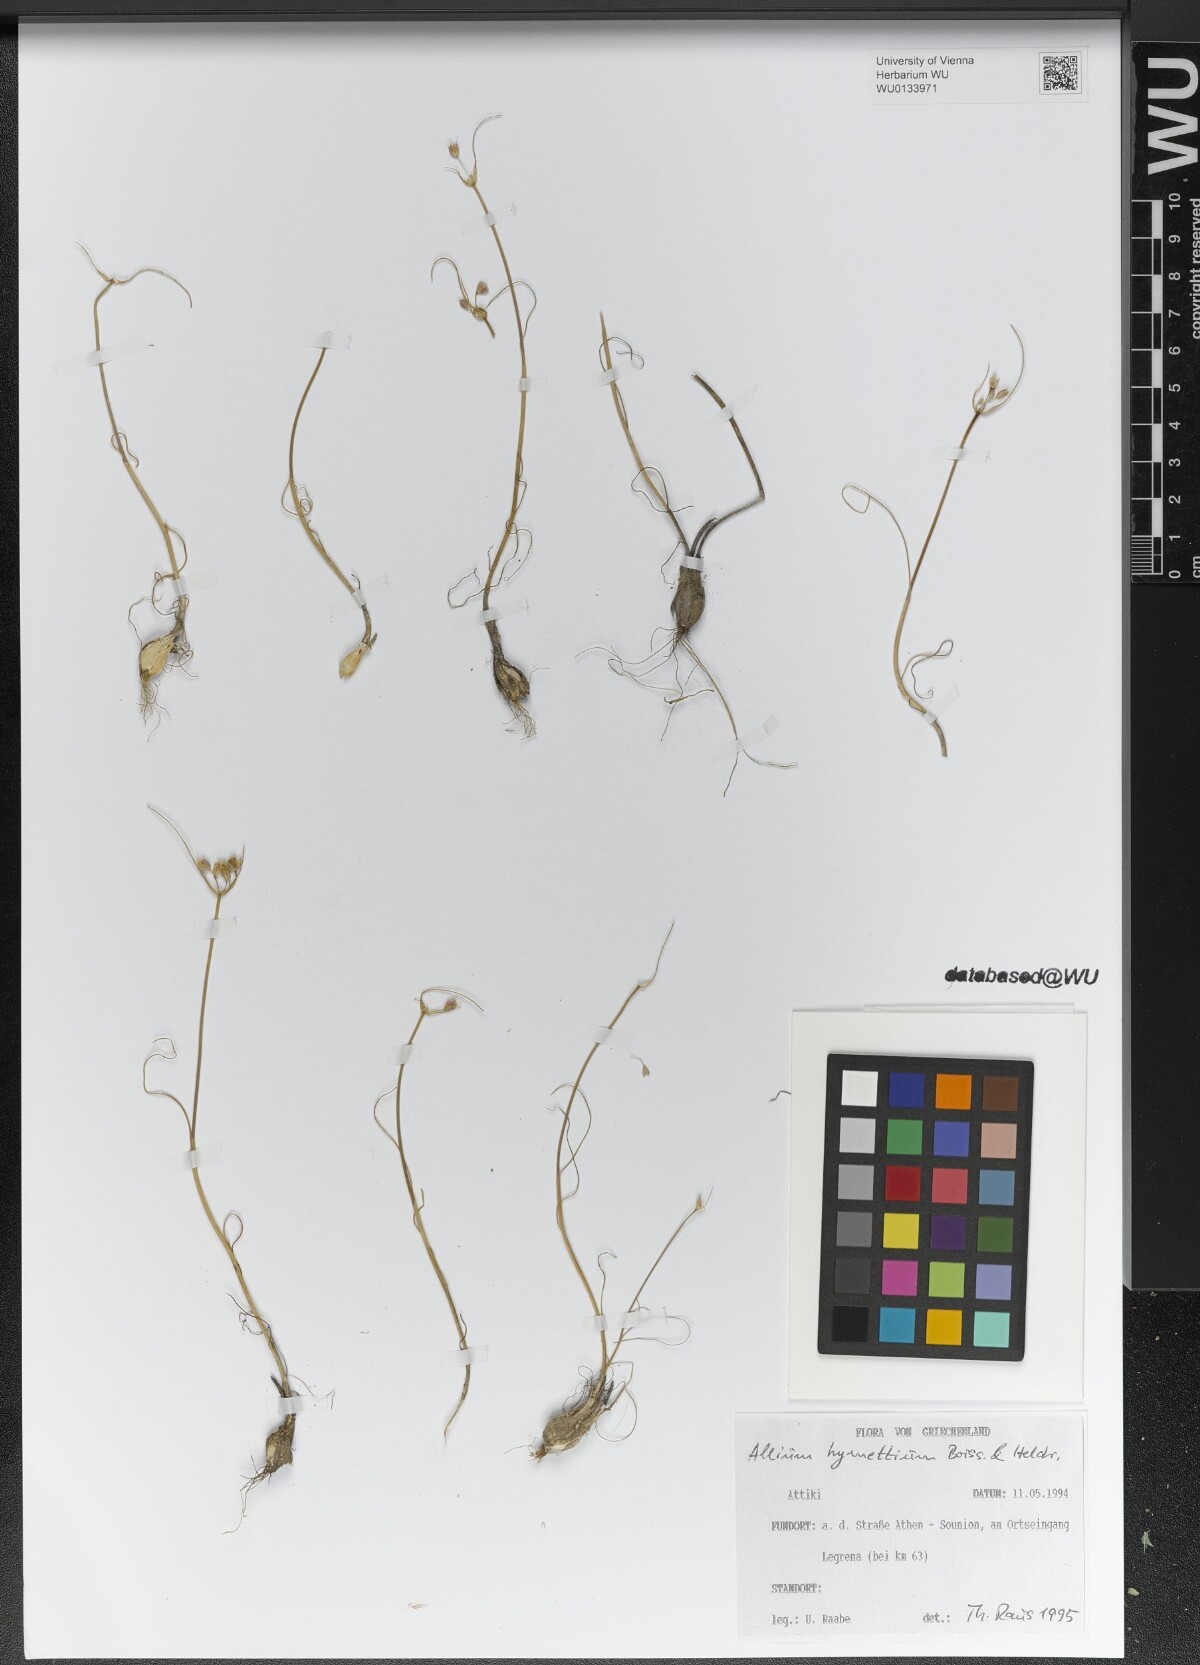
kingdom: Plantae
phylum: Tracheophyta
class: Liliopsida
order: Asparagales
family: Amaryllidaceae
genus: Allium
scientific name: Allium hymettium
